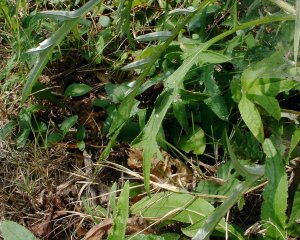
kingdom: Animalia
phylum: Arthropoda
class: Insecta
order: Lepidoptera
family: Hesperiidae
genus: Vernia
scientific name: Vernia verna
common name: Little Glassywing
